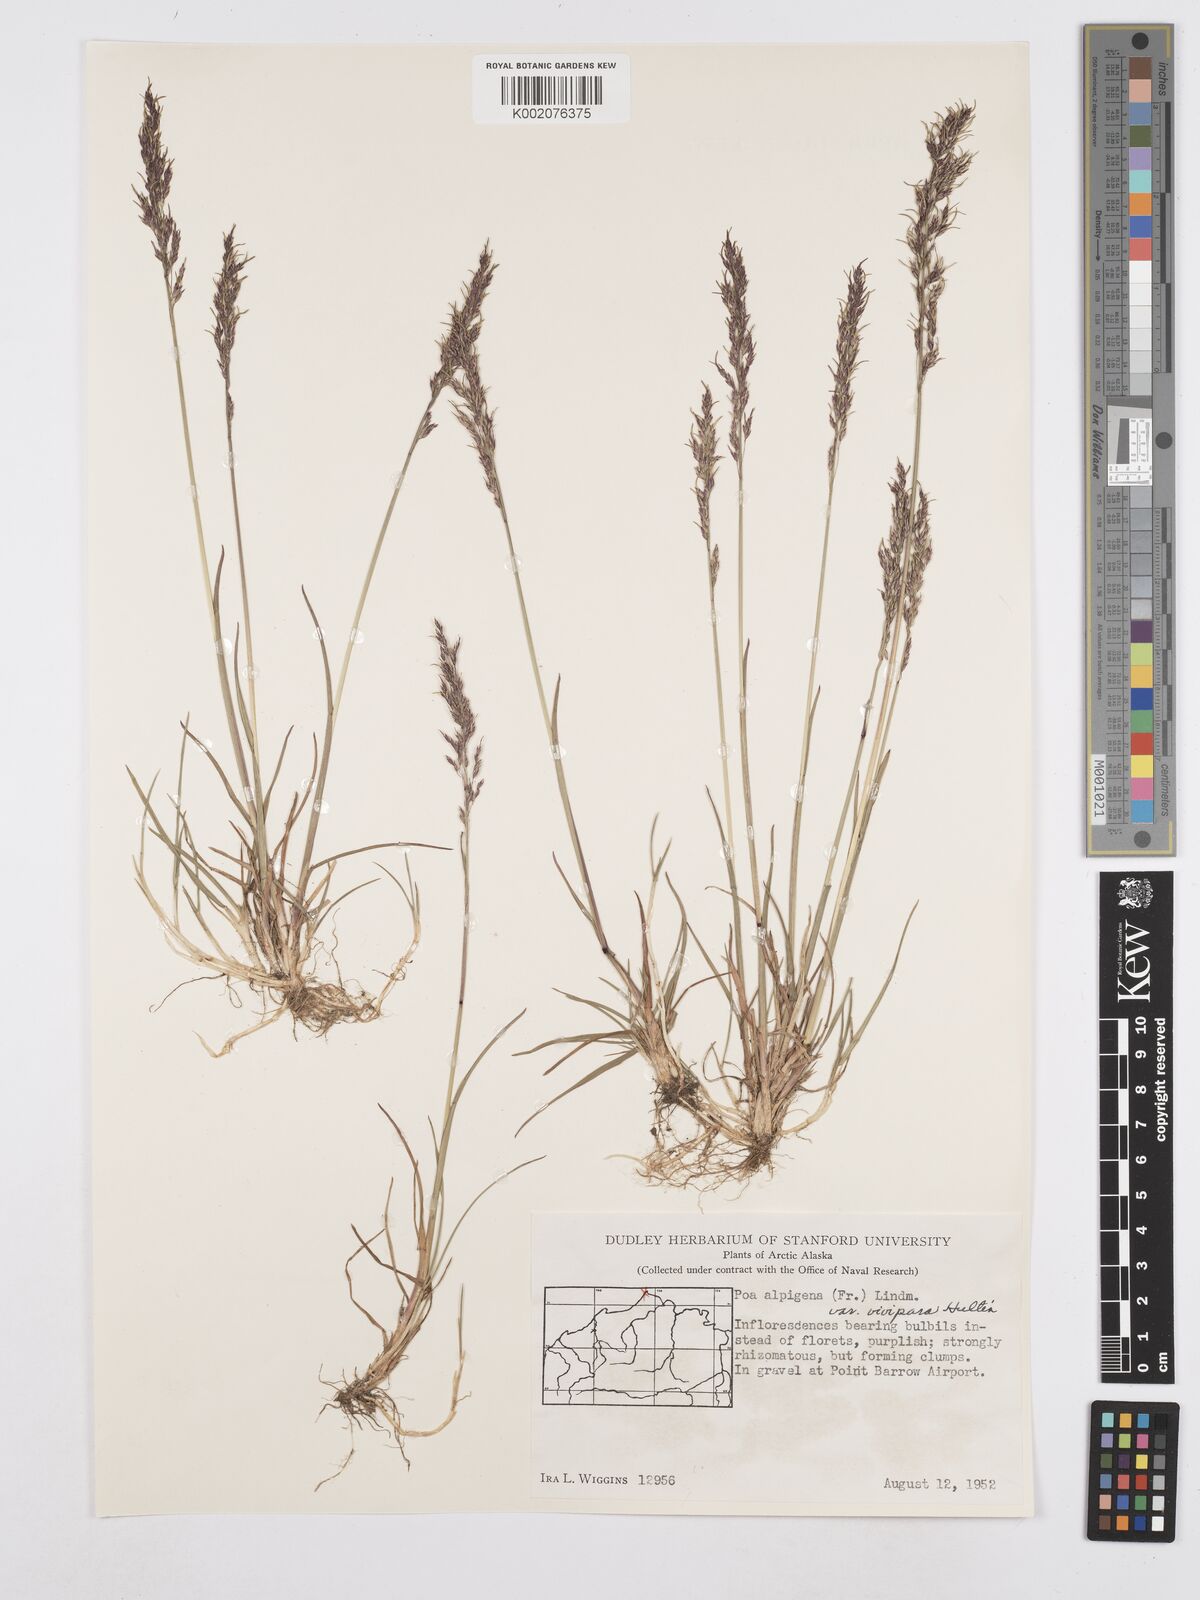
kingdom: Plantae
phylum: Tracheophyta
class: Liliopsida
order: Poales
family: Poaceae
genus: Poa
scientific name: Poa alpigena
